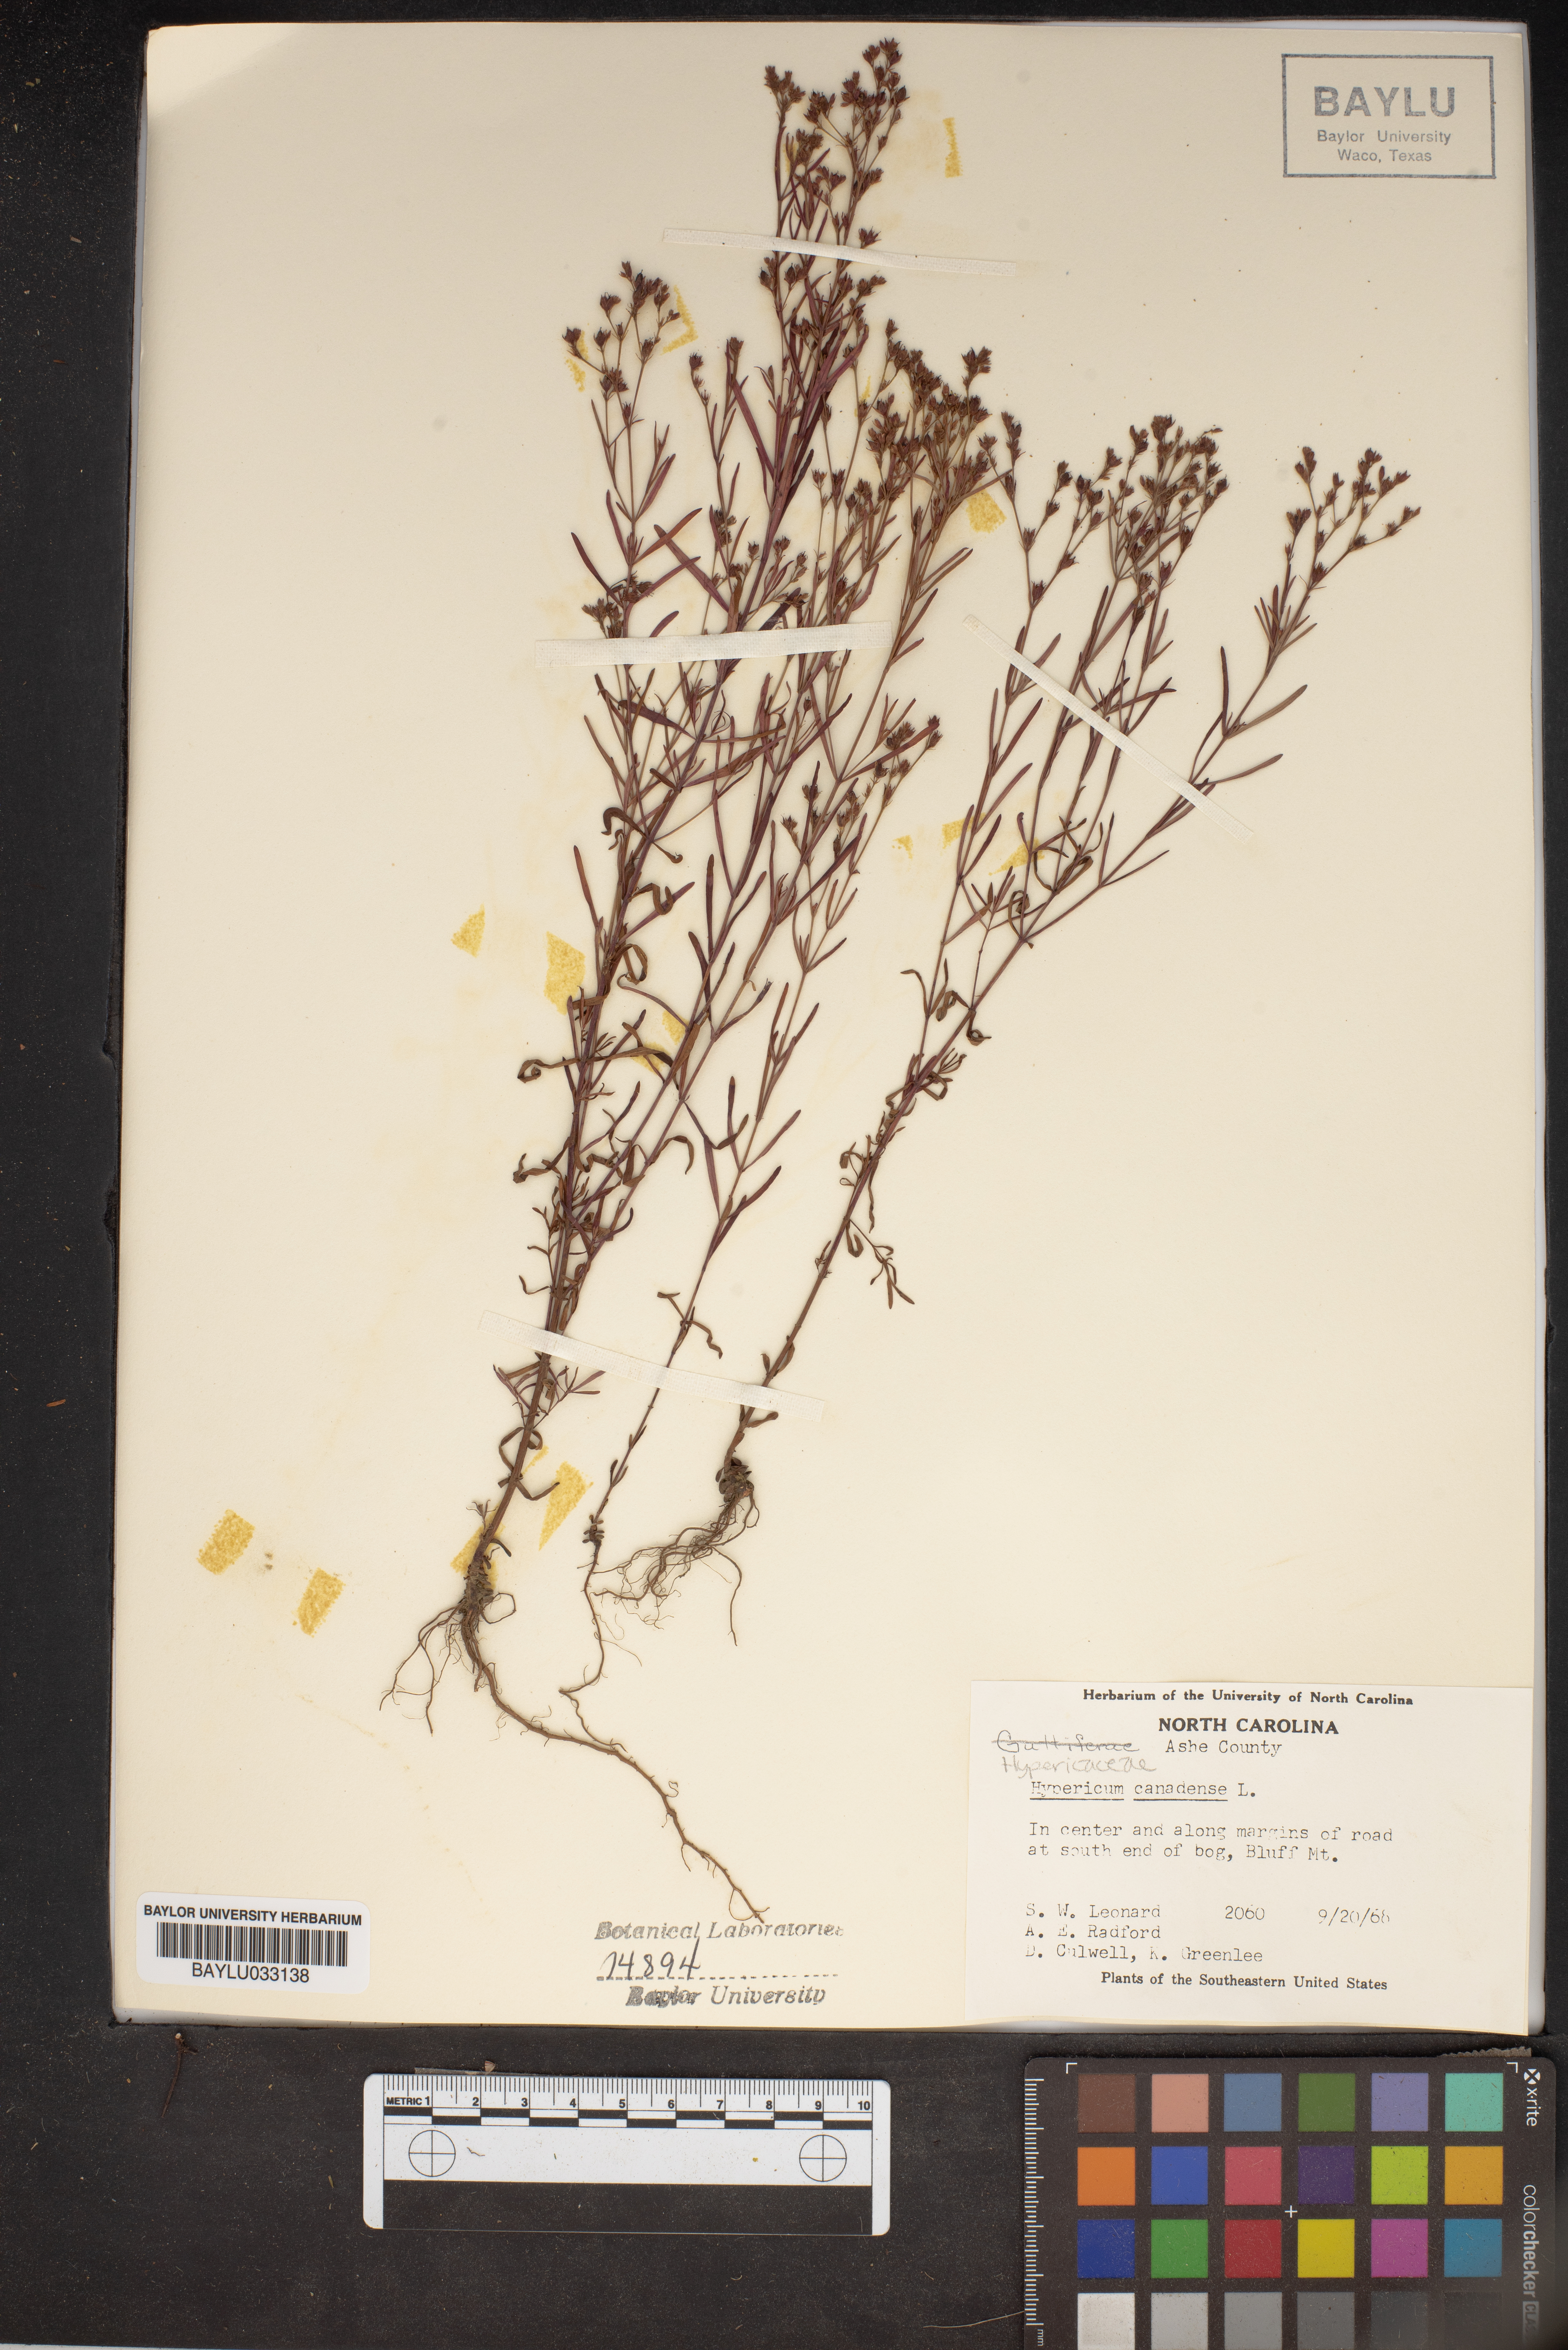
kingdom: Plantae
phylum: Tracheophyta
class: Magnoliopsida
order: Malpighiales
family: Hypericaceae
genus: Hypericum
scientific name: Hypericum canadense
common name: Irish st. john's-wort
